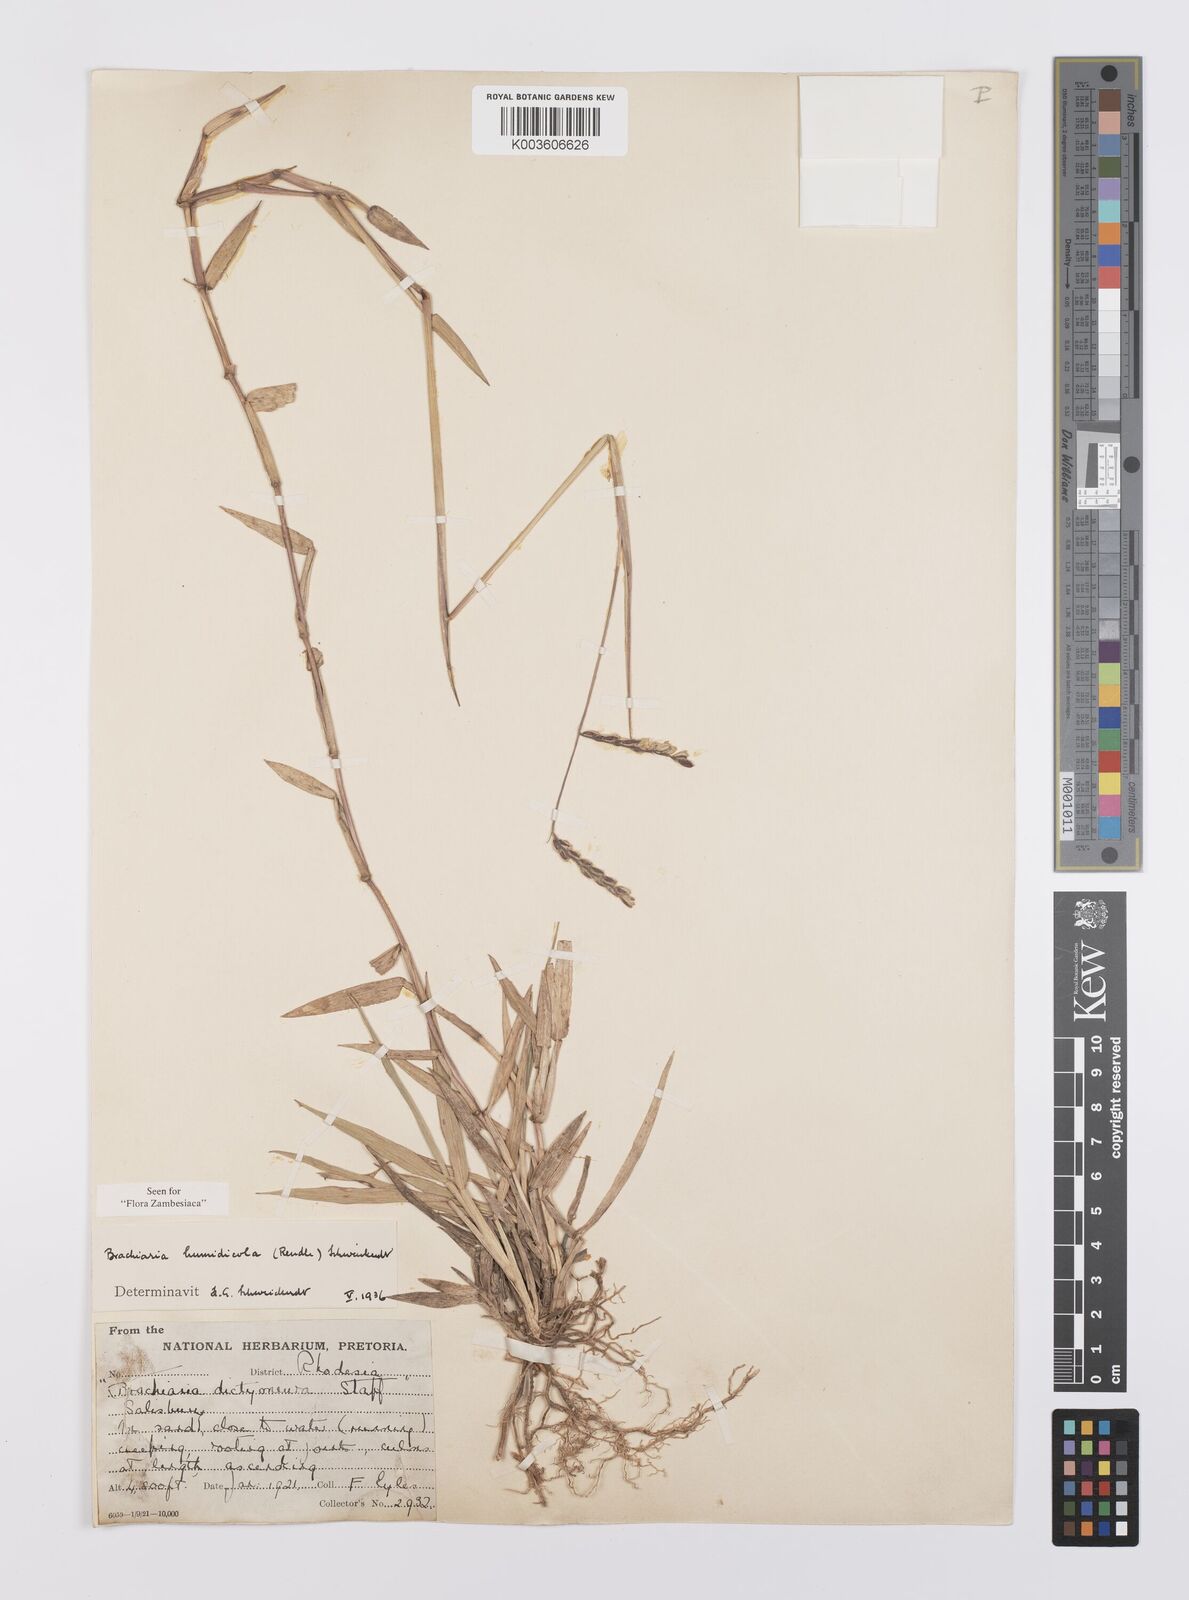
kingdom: Plantae
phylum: Tracheophyta
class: Liliopsida
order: Poales
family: Poaceae
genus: Urochloa
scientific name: Urochloa dictyoneura
